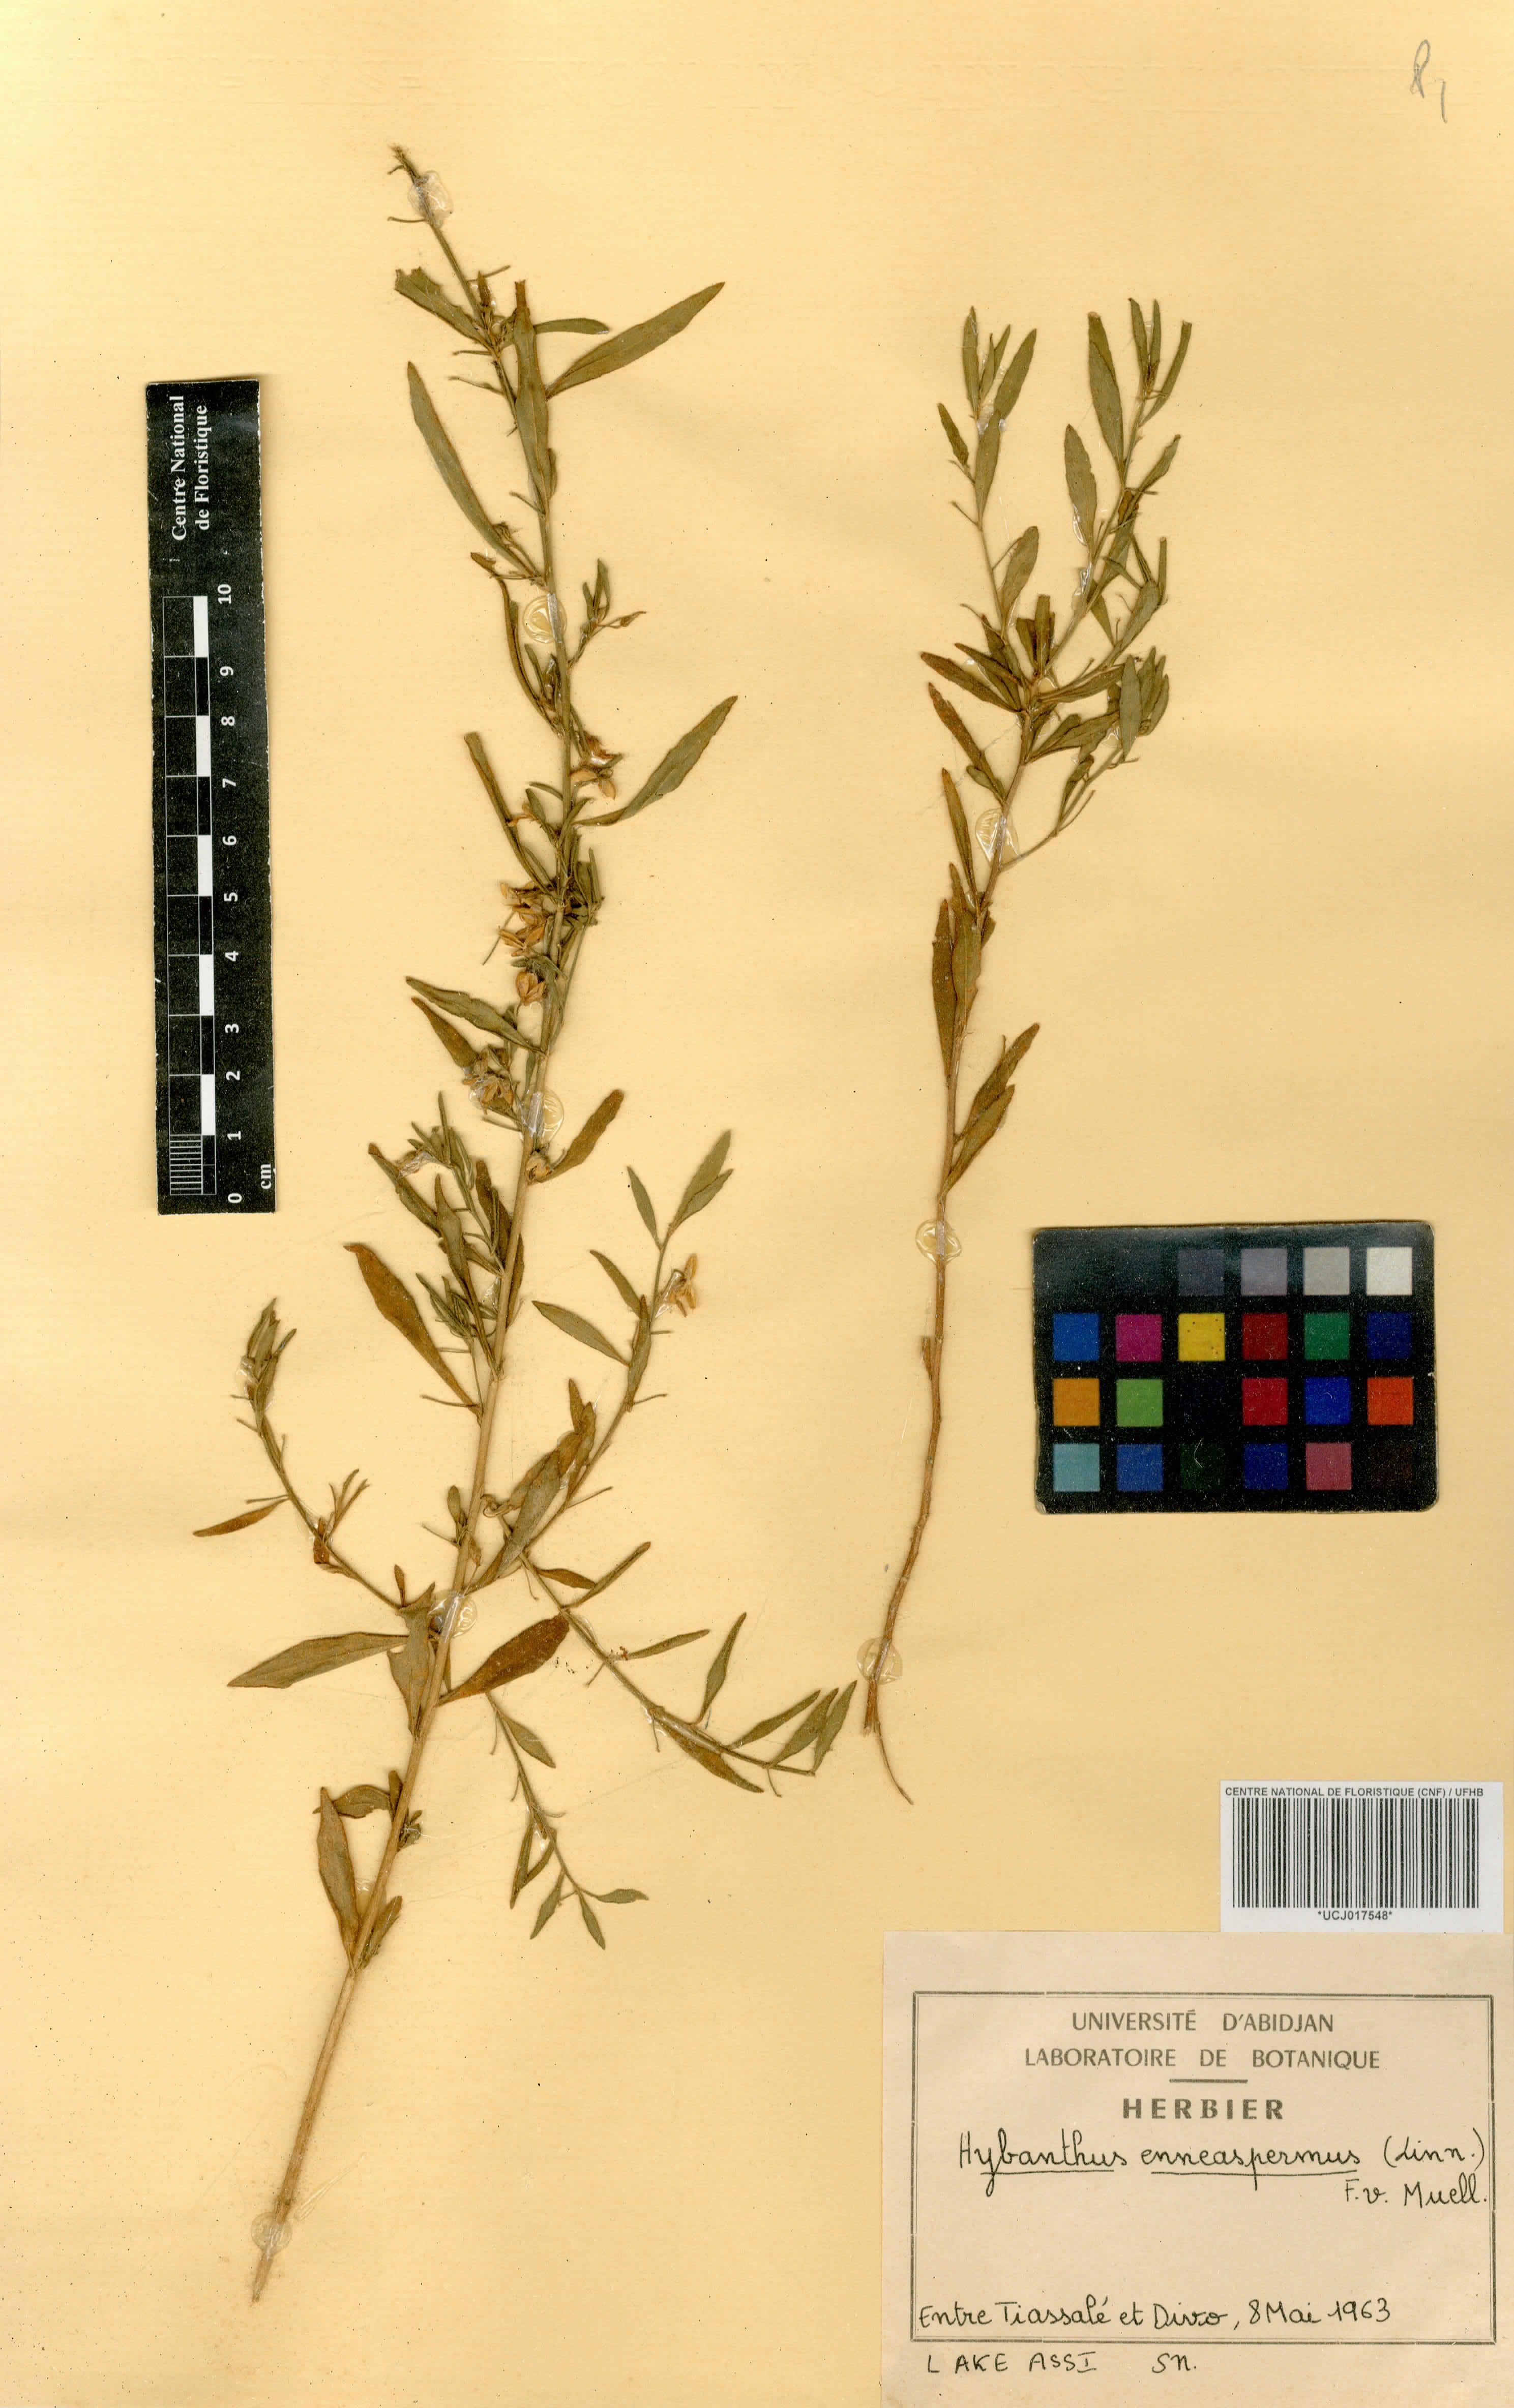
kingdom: Plantae
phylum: Tracheophyta
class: Magnoliopsida
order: Malpighiales
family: Violaceae
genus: Pigea
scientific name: Pigea enneasperma
